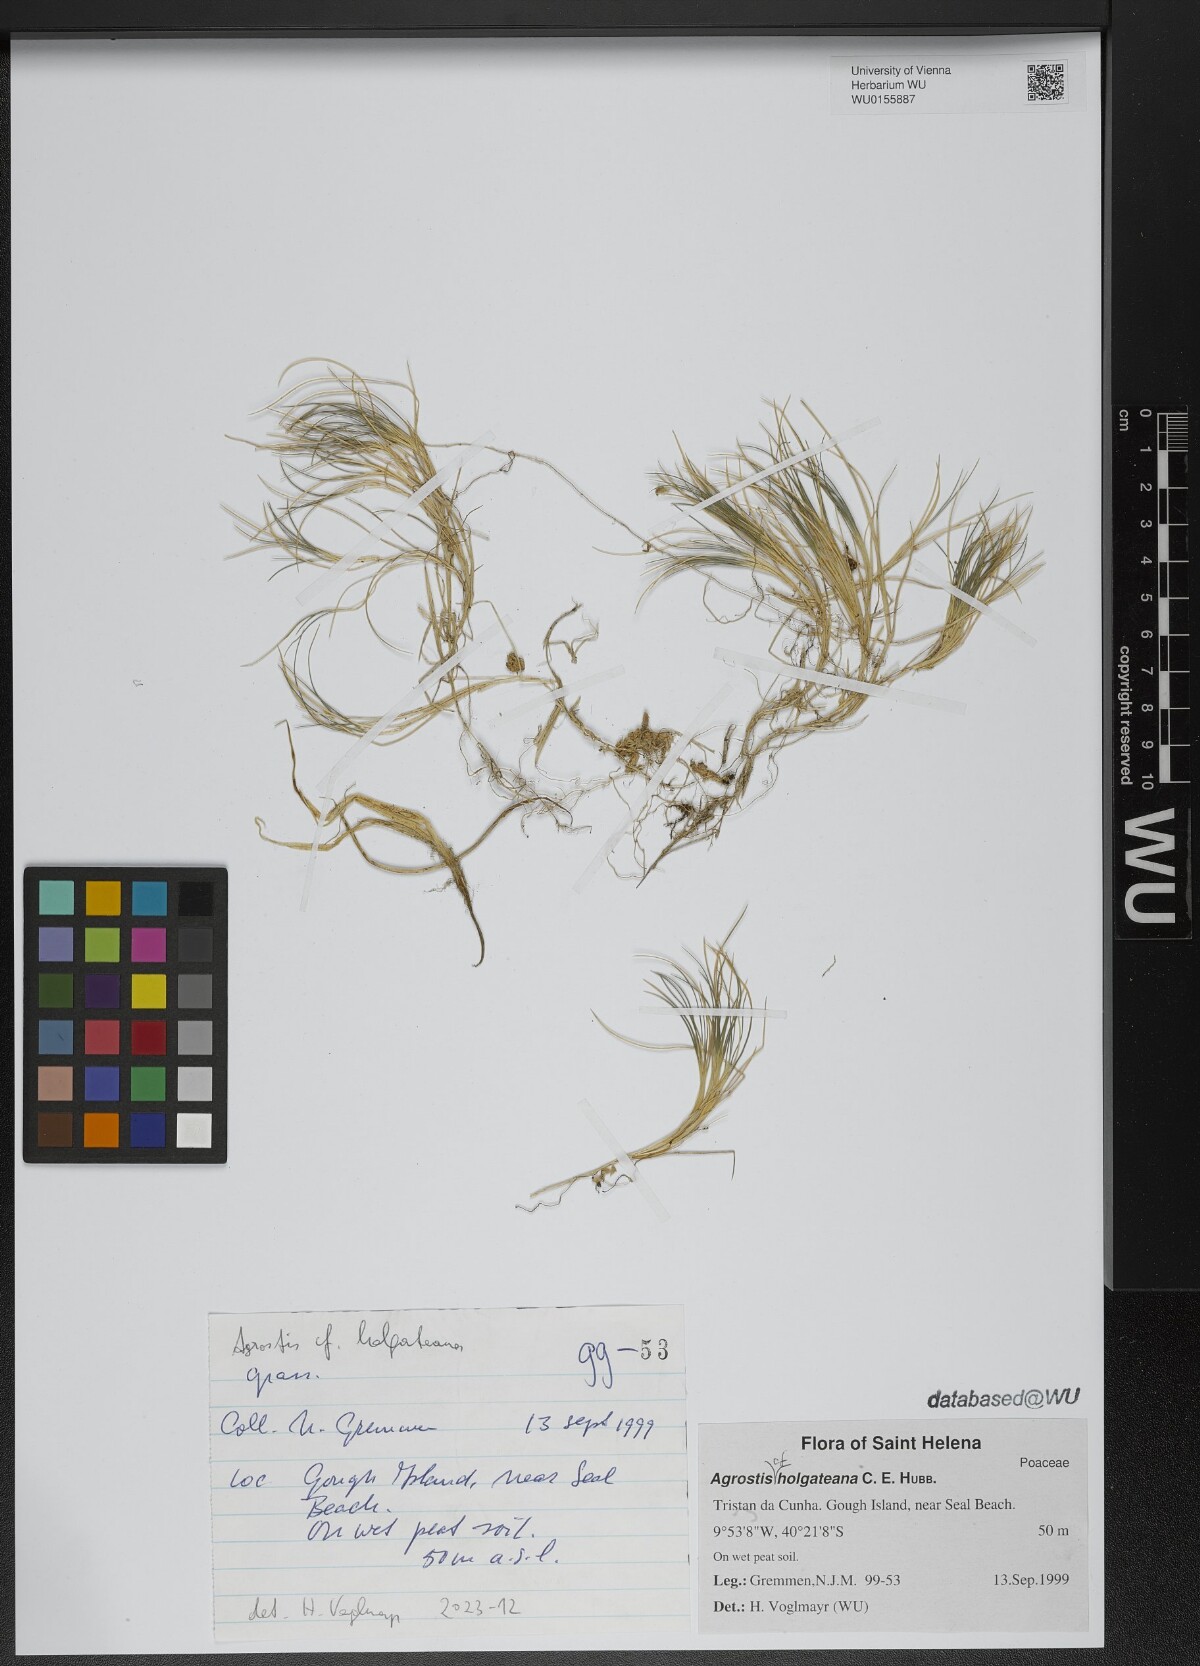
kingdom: Plantae
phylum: Tracheophyta
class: Liliopsida
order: Poales
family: Poaceae
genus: Agrostis
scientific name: Agrostis holgateana
